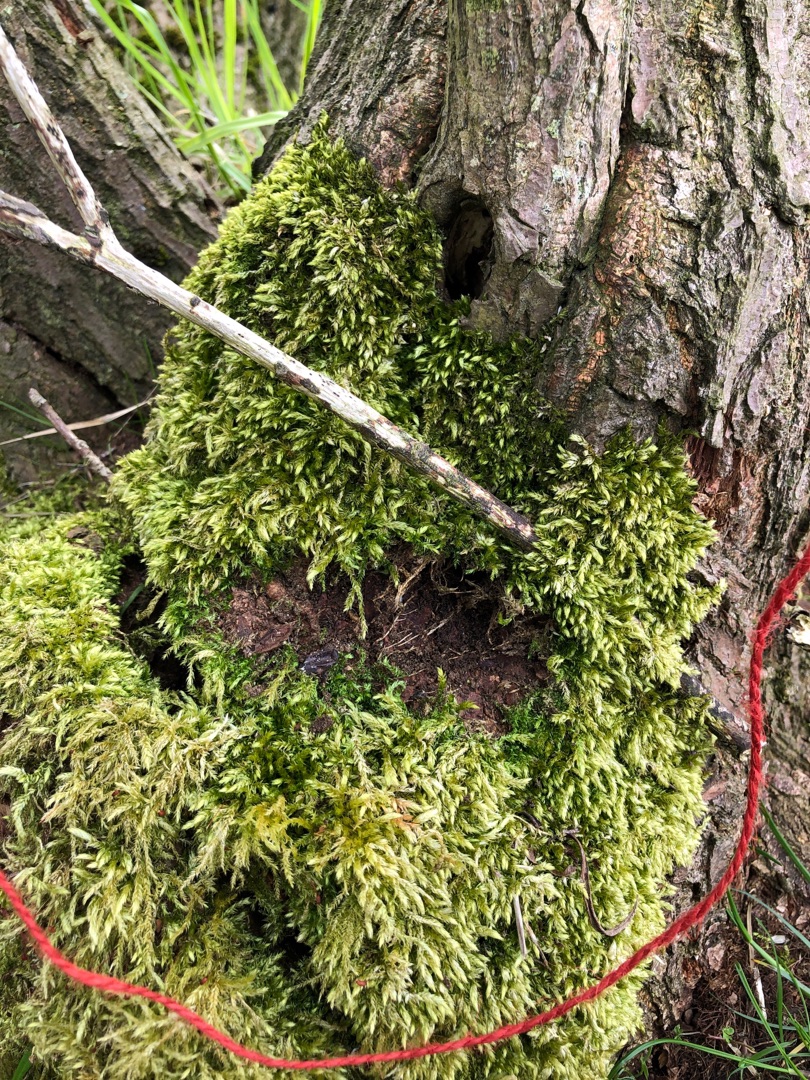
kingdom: Plantae
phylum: Bryophyta
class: Bryopsida
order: Hypnales
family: Brachytheciaceae
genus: Brachythecium
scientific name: Brachythecium rutabulum
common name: Almindelig kortkapsel
